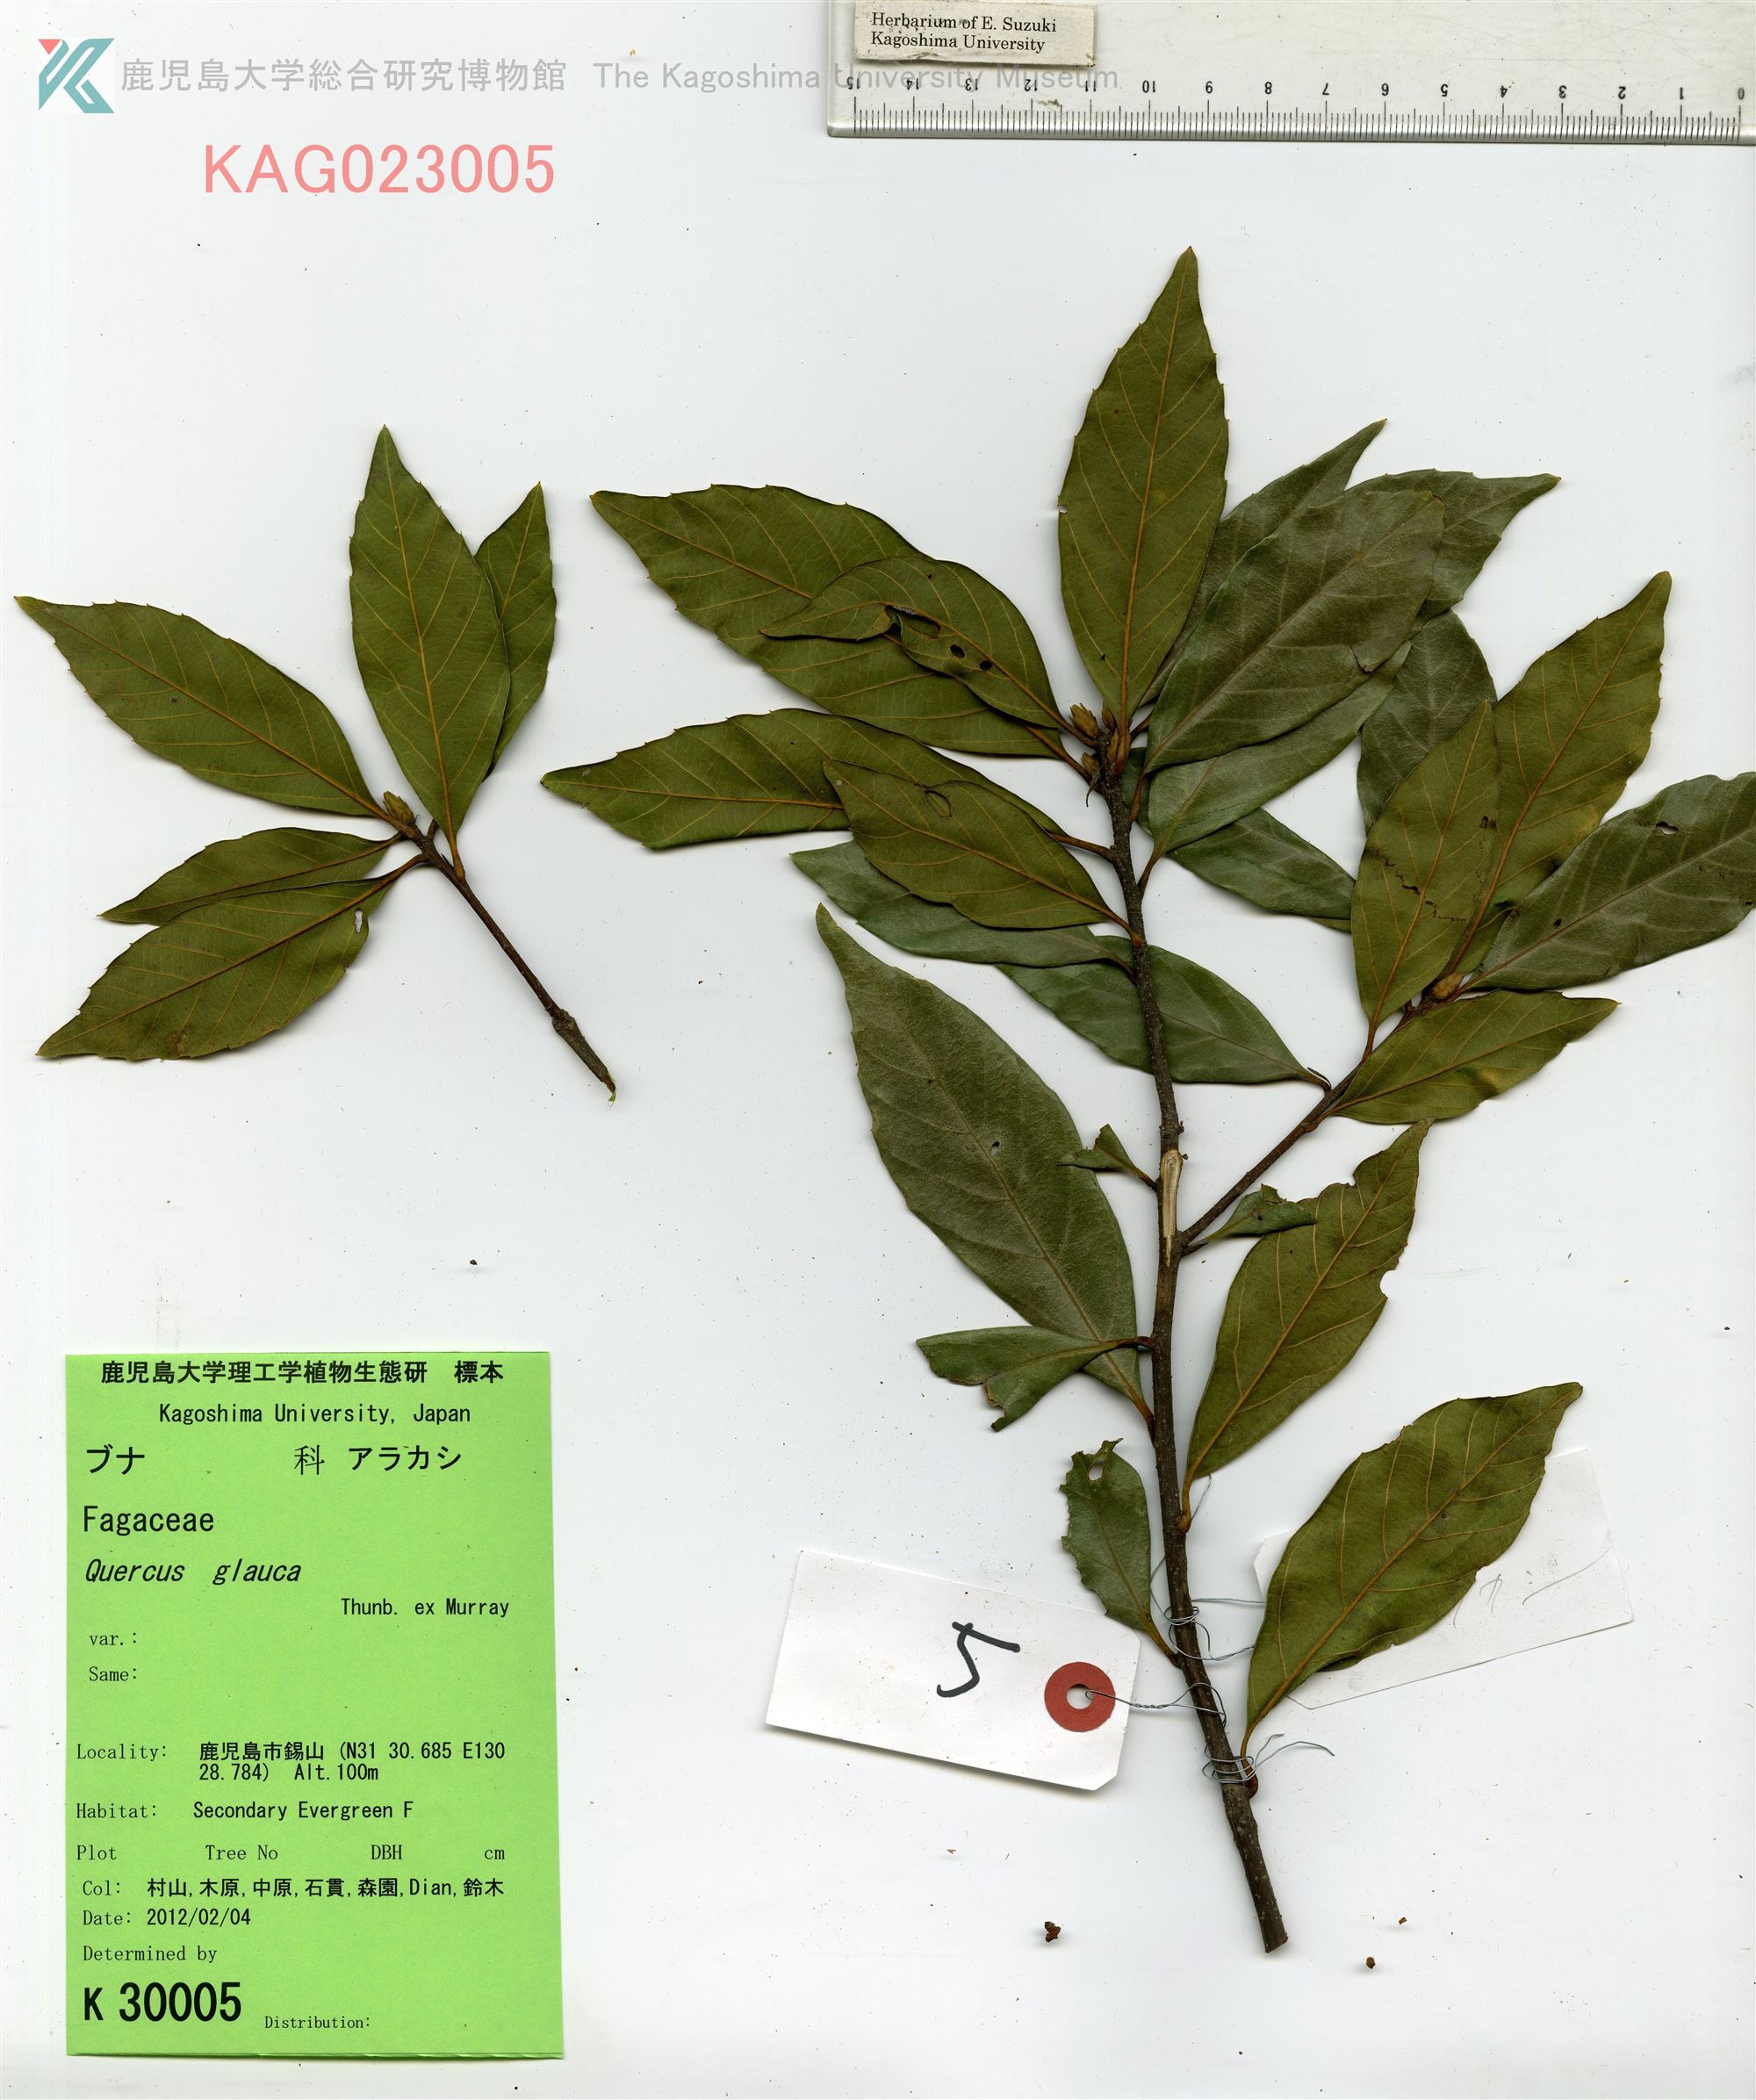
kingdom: Plantae
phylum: Tracheophyta
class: Magnoliopsida
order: Fagales
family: Fagaceae
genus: Quercus
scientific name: Quercus glauca
